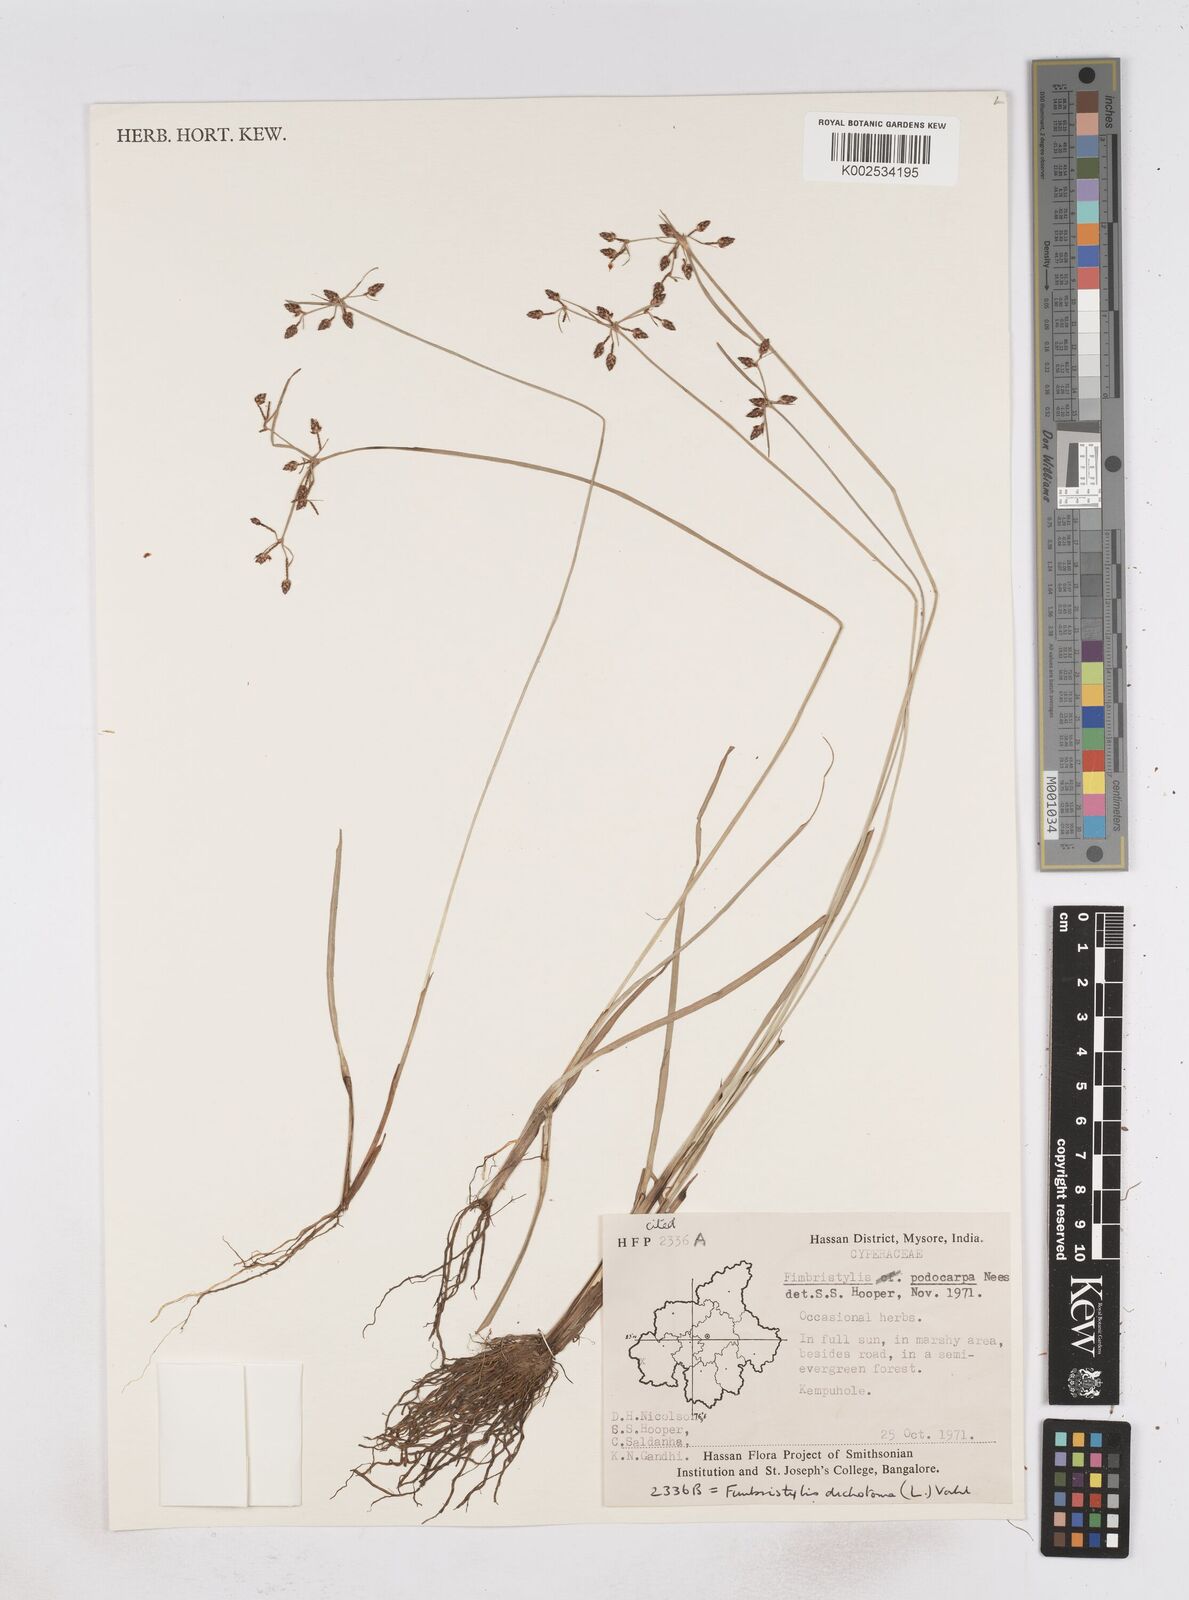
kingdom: Plantae
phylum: Tracheophyta
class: Liliopsida
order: Poales
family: Cyperaceae
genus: Fimbristylis
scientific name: Fimbristylis dichotoma
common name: Forked fimbry
